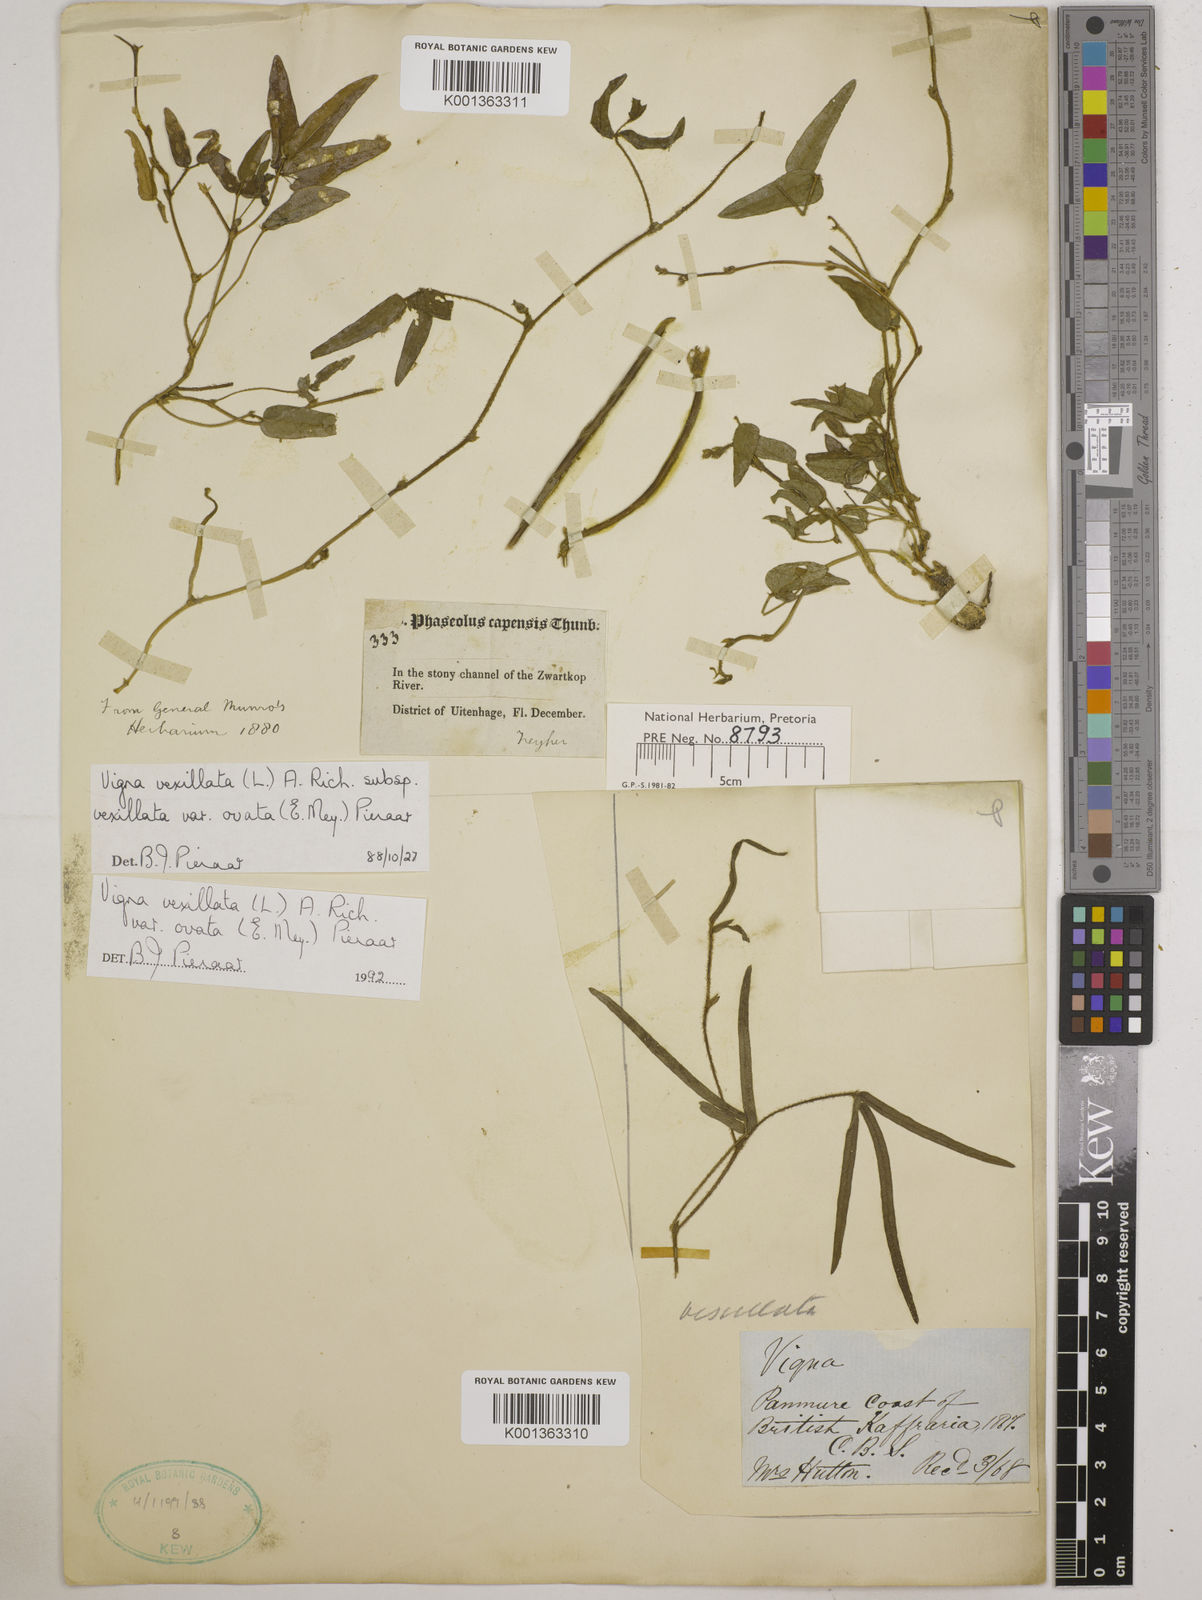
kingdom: Plantae
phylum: Tracheophyta
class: Magnoliopsida
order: Fabales
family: Fabaceae
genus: Vigna
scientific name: Vigna
